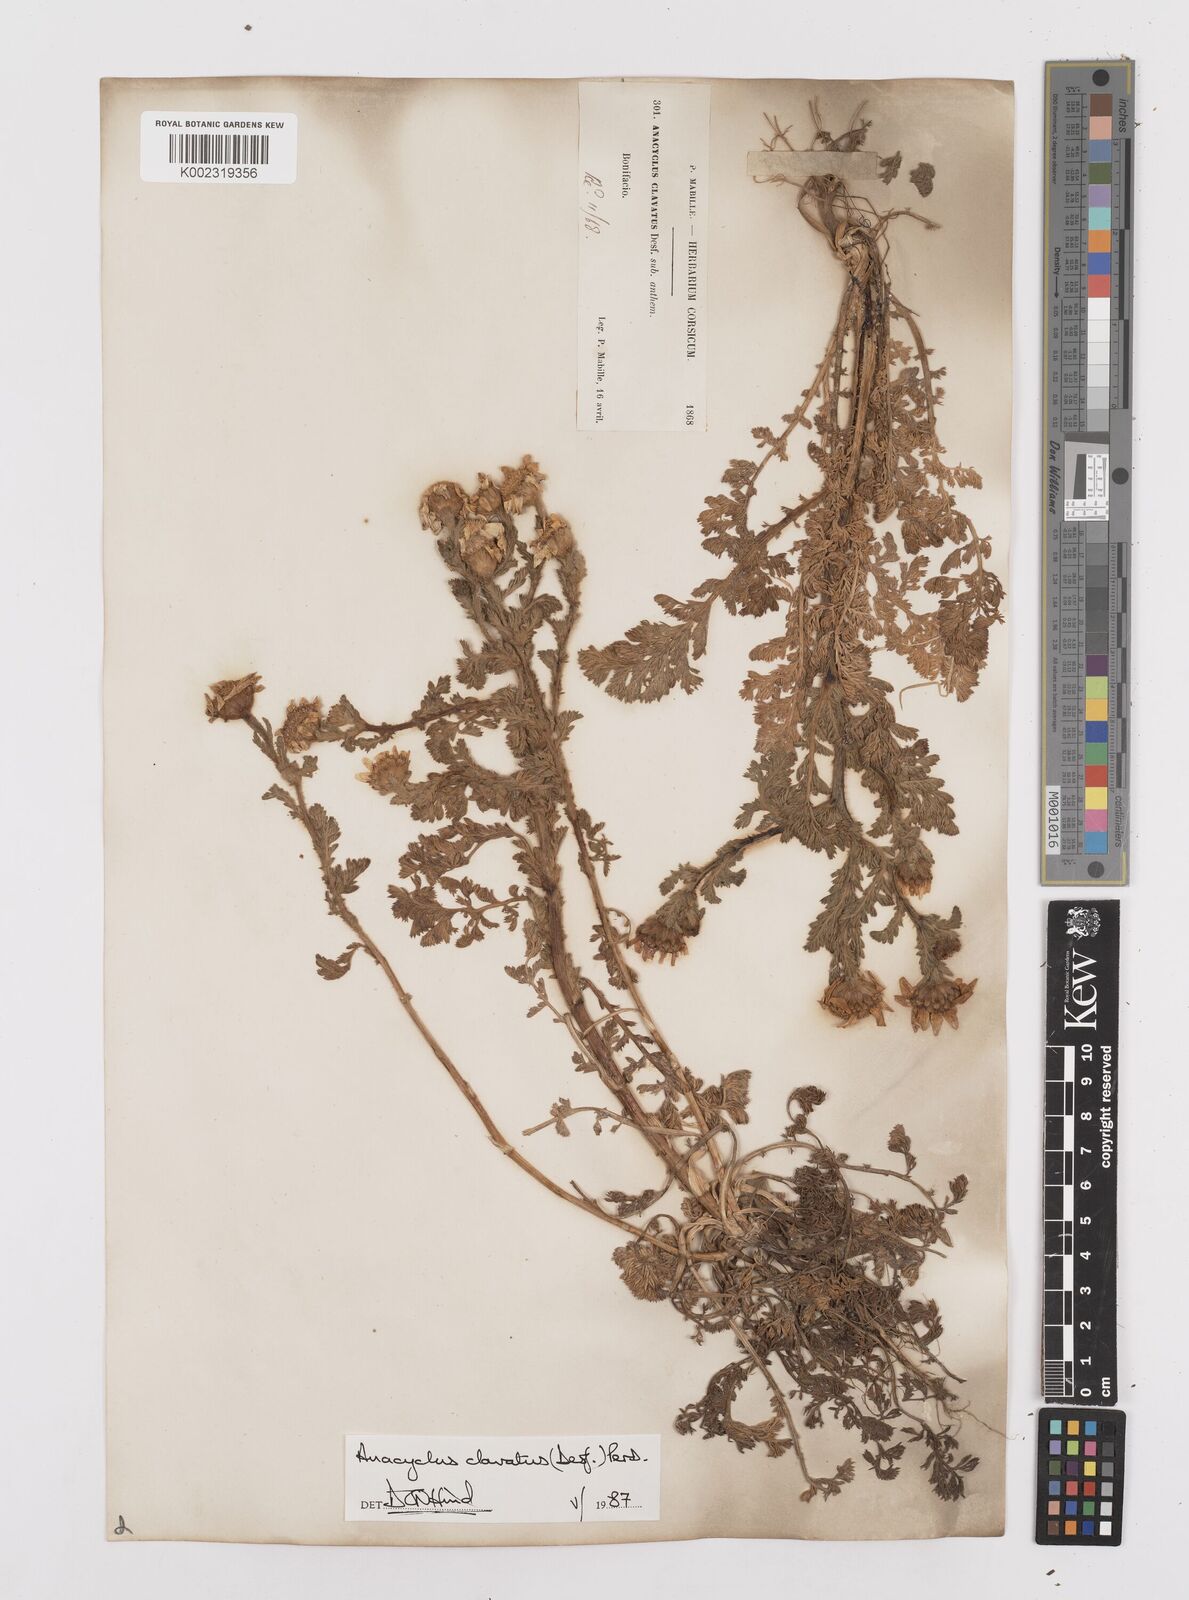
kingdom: Plantae
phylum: Tracheophyta
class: Magnoliopsida
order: Asterales
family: Asteraceae
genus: Anacyclus
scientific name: Anacyclus clavatus
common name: Whitebuttons
